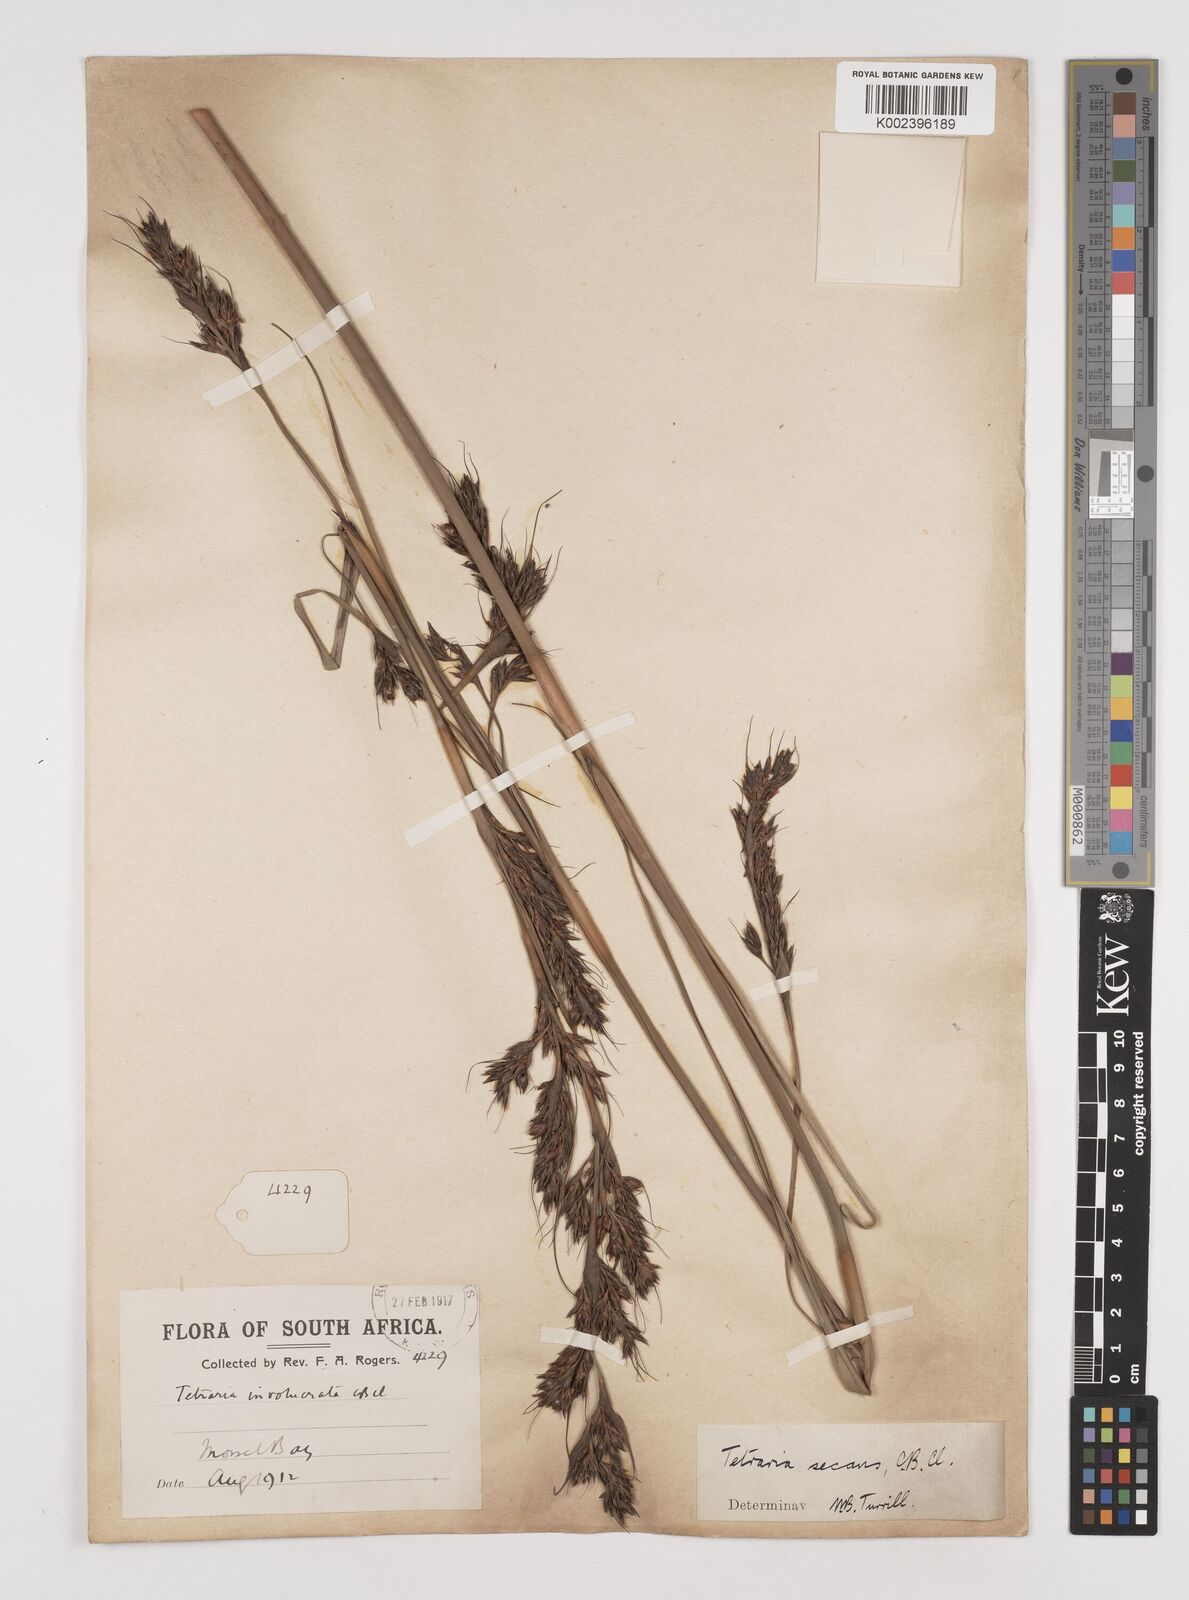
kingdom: Plantae
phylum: Tracheophyta
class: Liliopsida
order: Poales
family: Cyperaceae
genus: Tetraria
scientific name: Tetraria secans
